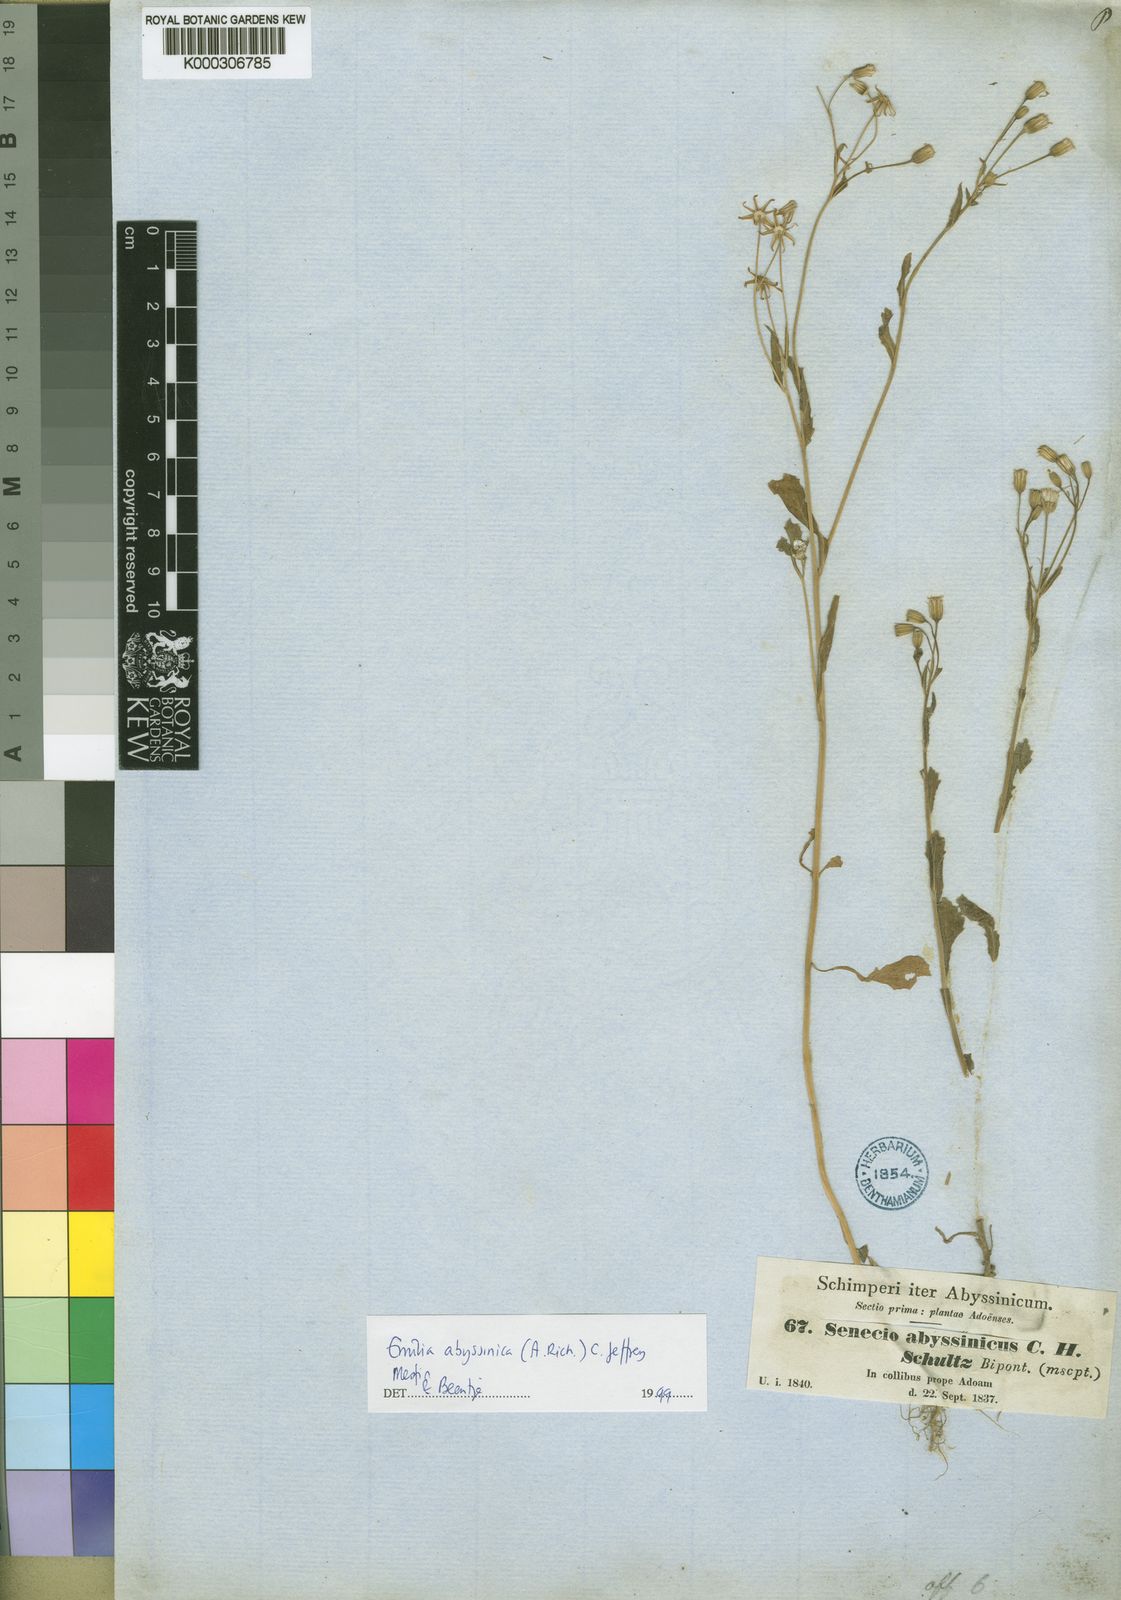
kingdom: Plantae
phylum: Tracheophyta
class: Magnoliopsida
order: Asterales
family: Asteraceae
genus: Emilia
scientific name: Emilia abyssinica
